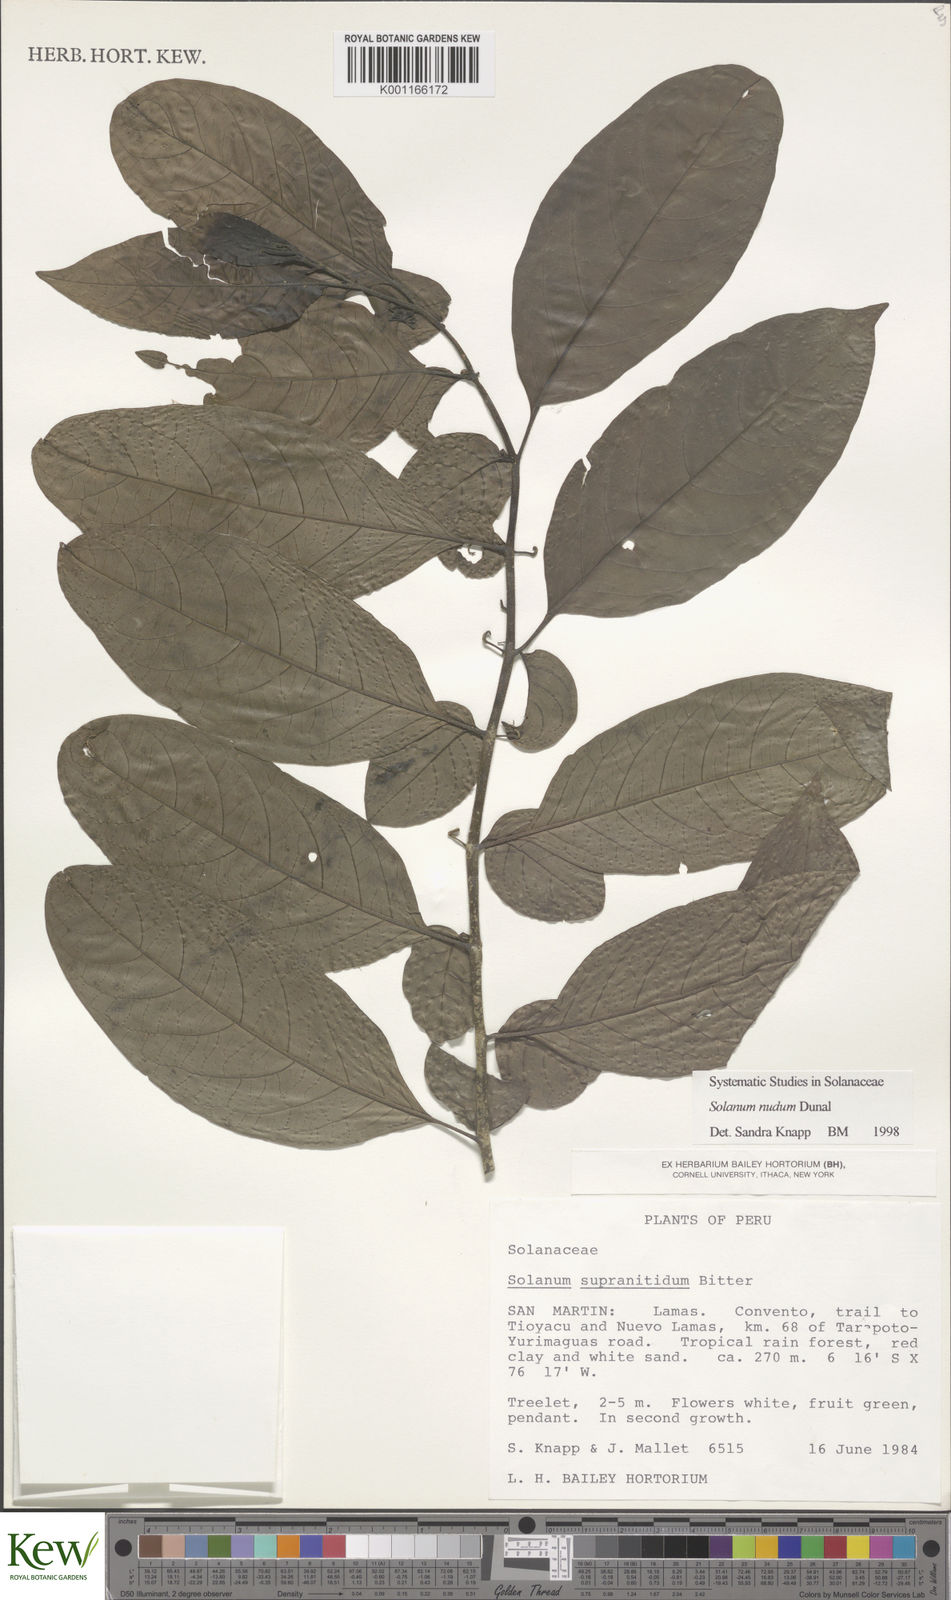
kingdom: Plantae
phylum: Tracheophyta
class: Magnoliopsida
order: Solanales
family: Solanaceae
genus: Solanum
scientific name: Solanum nudum
